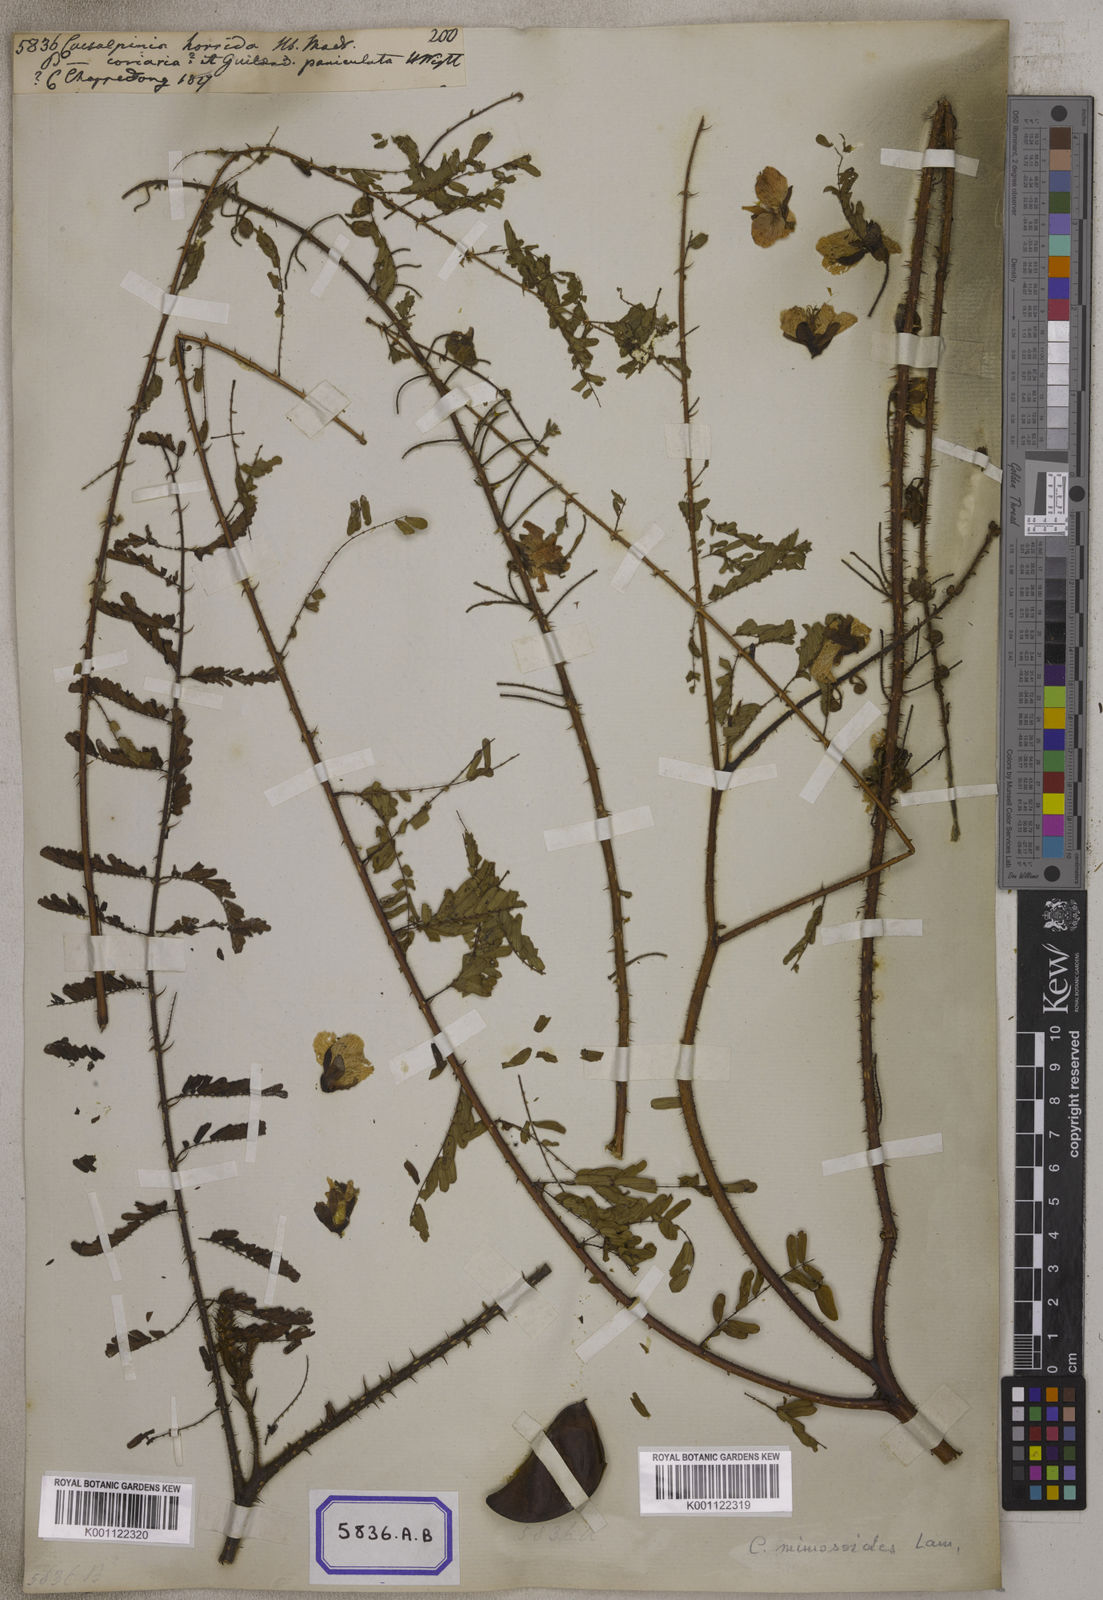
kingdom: Plantae
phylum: Tracheophyta
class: Magnoliopsida
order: Fabales
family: Fabaceae
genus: Caesalpinia
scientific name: Caesalpinia
